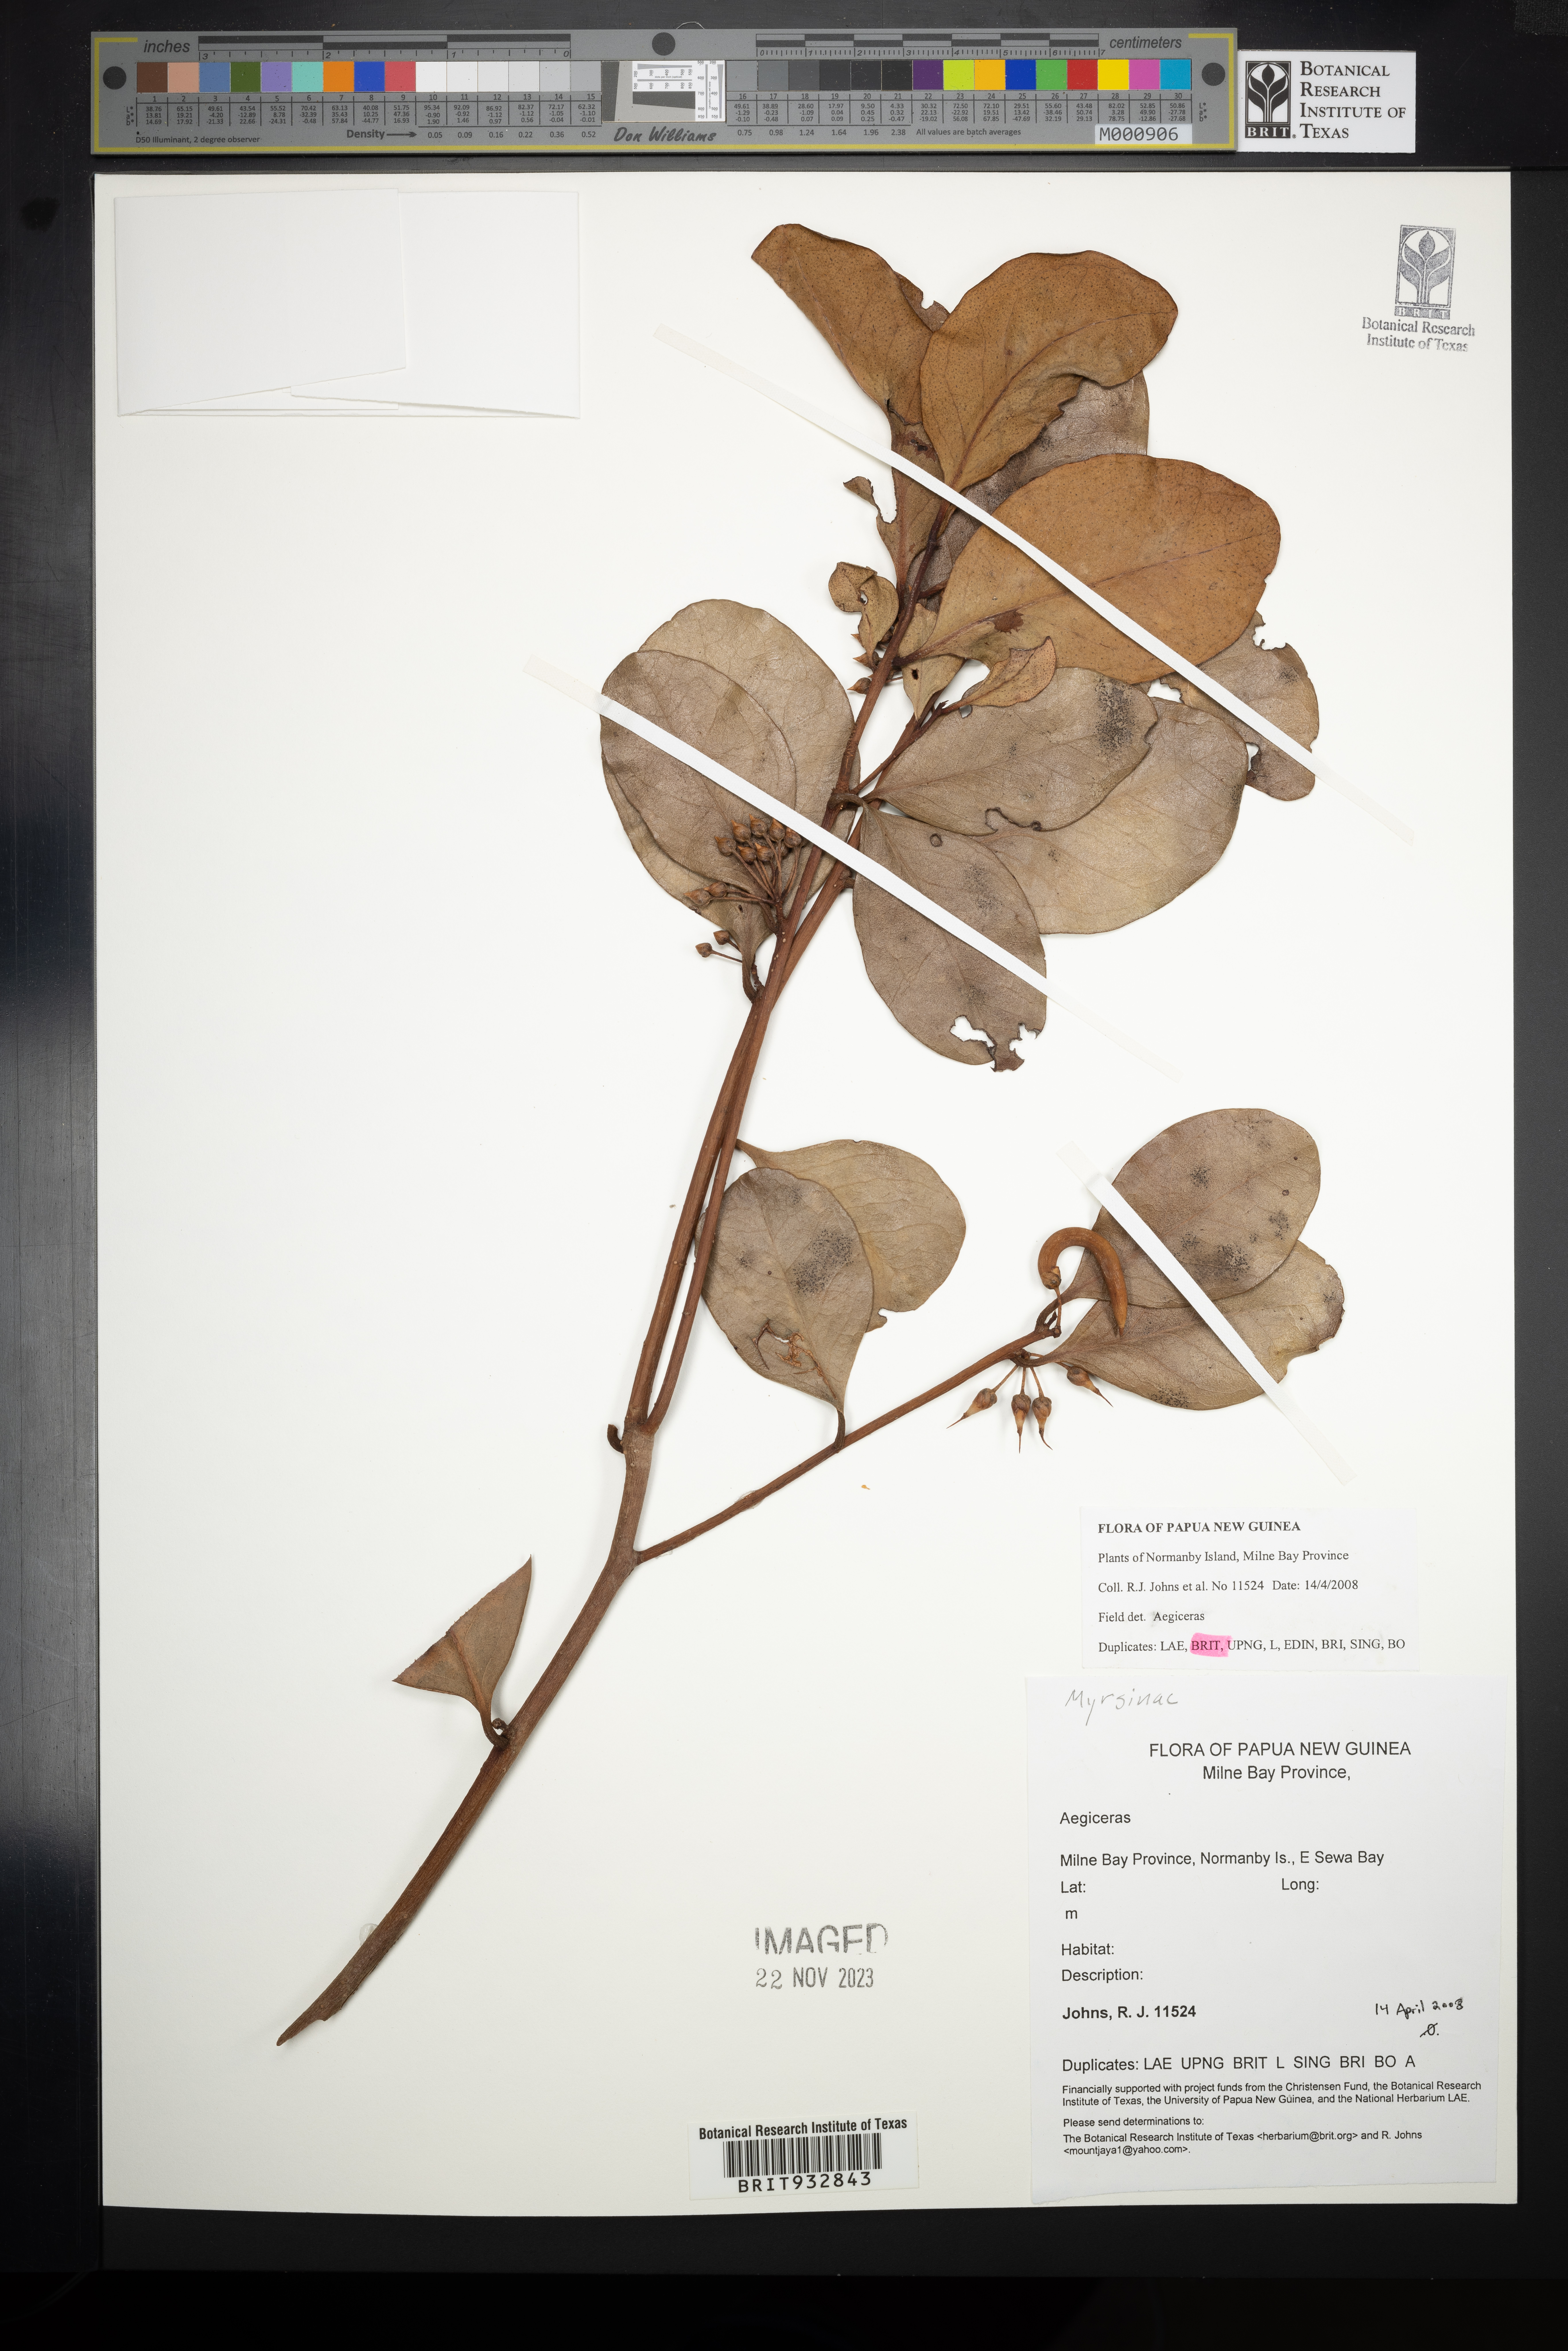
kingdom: Plantae
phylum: Tracheophyta
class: Magnoliopsida
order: Ericales
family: Primulaceae
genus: Aegiceras
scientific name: Aegiceras
